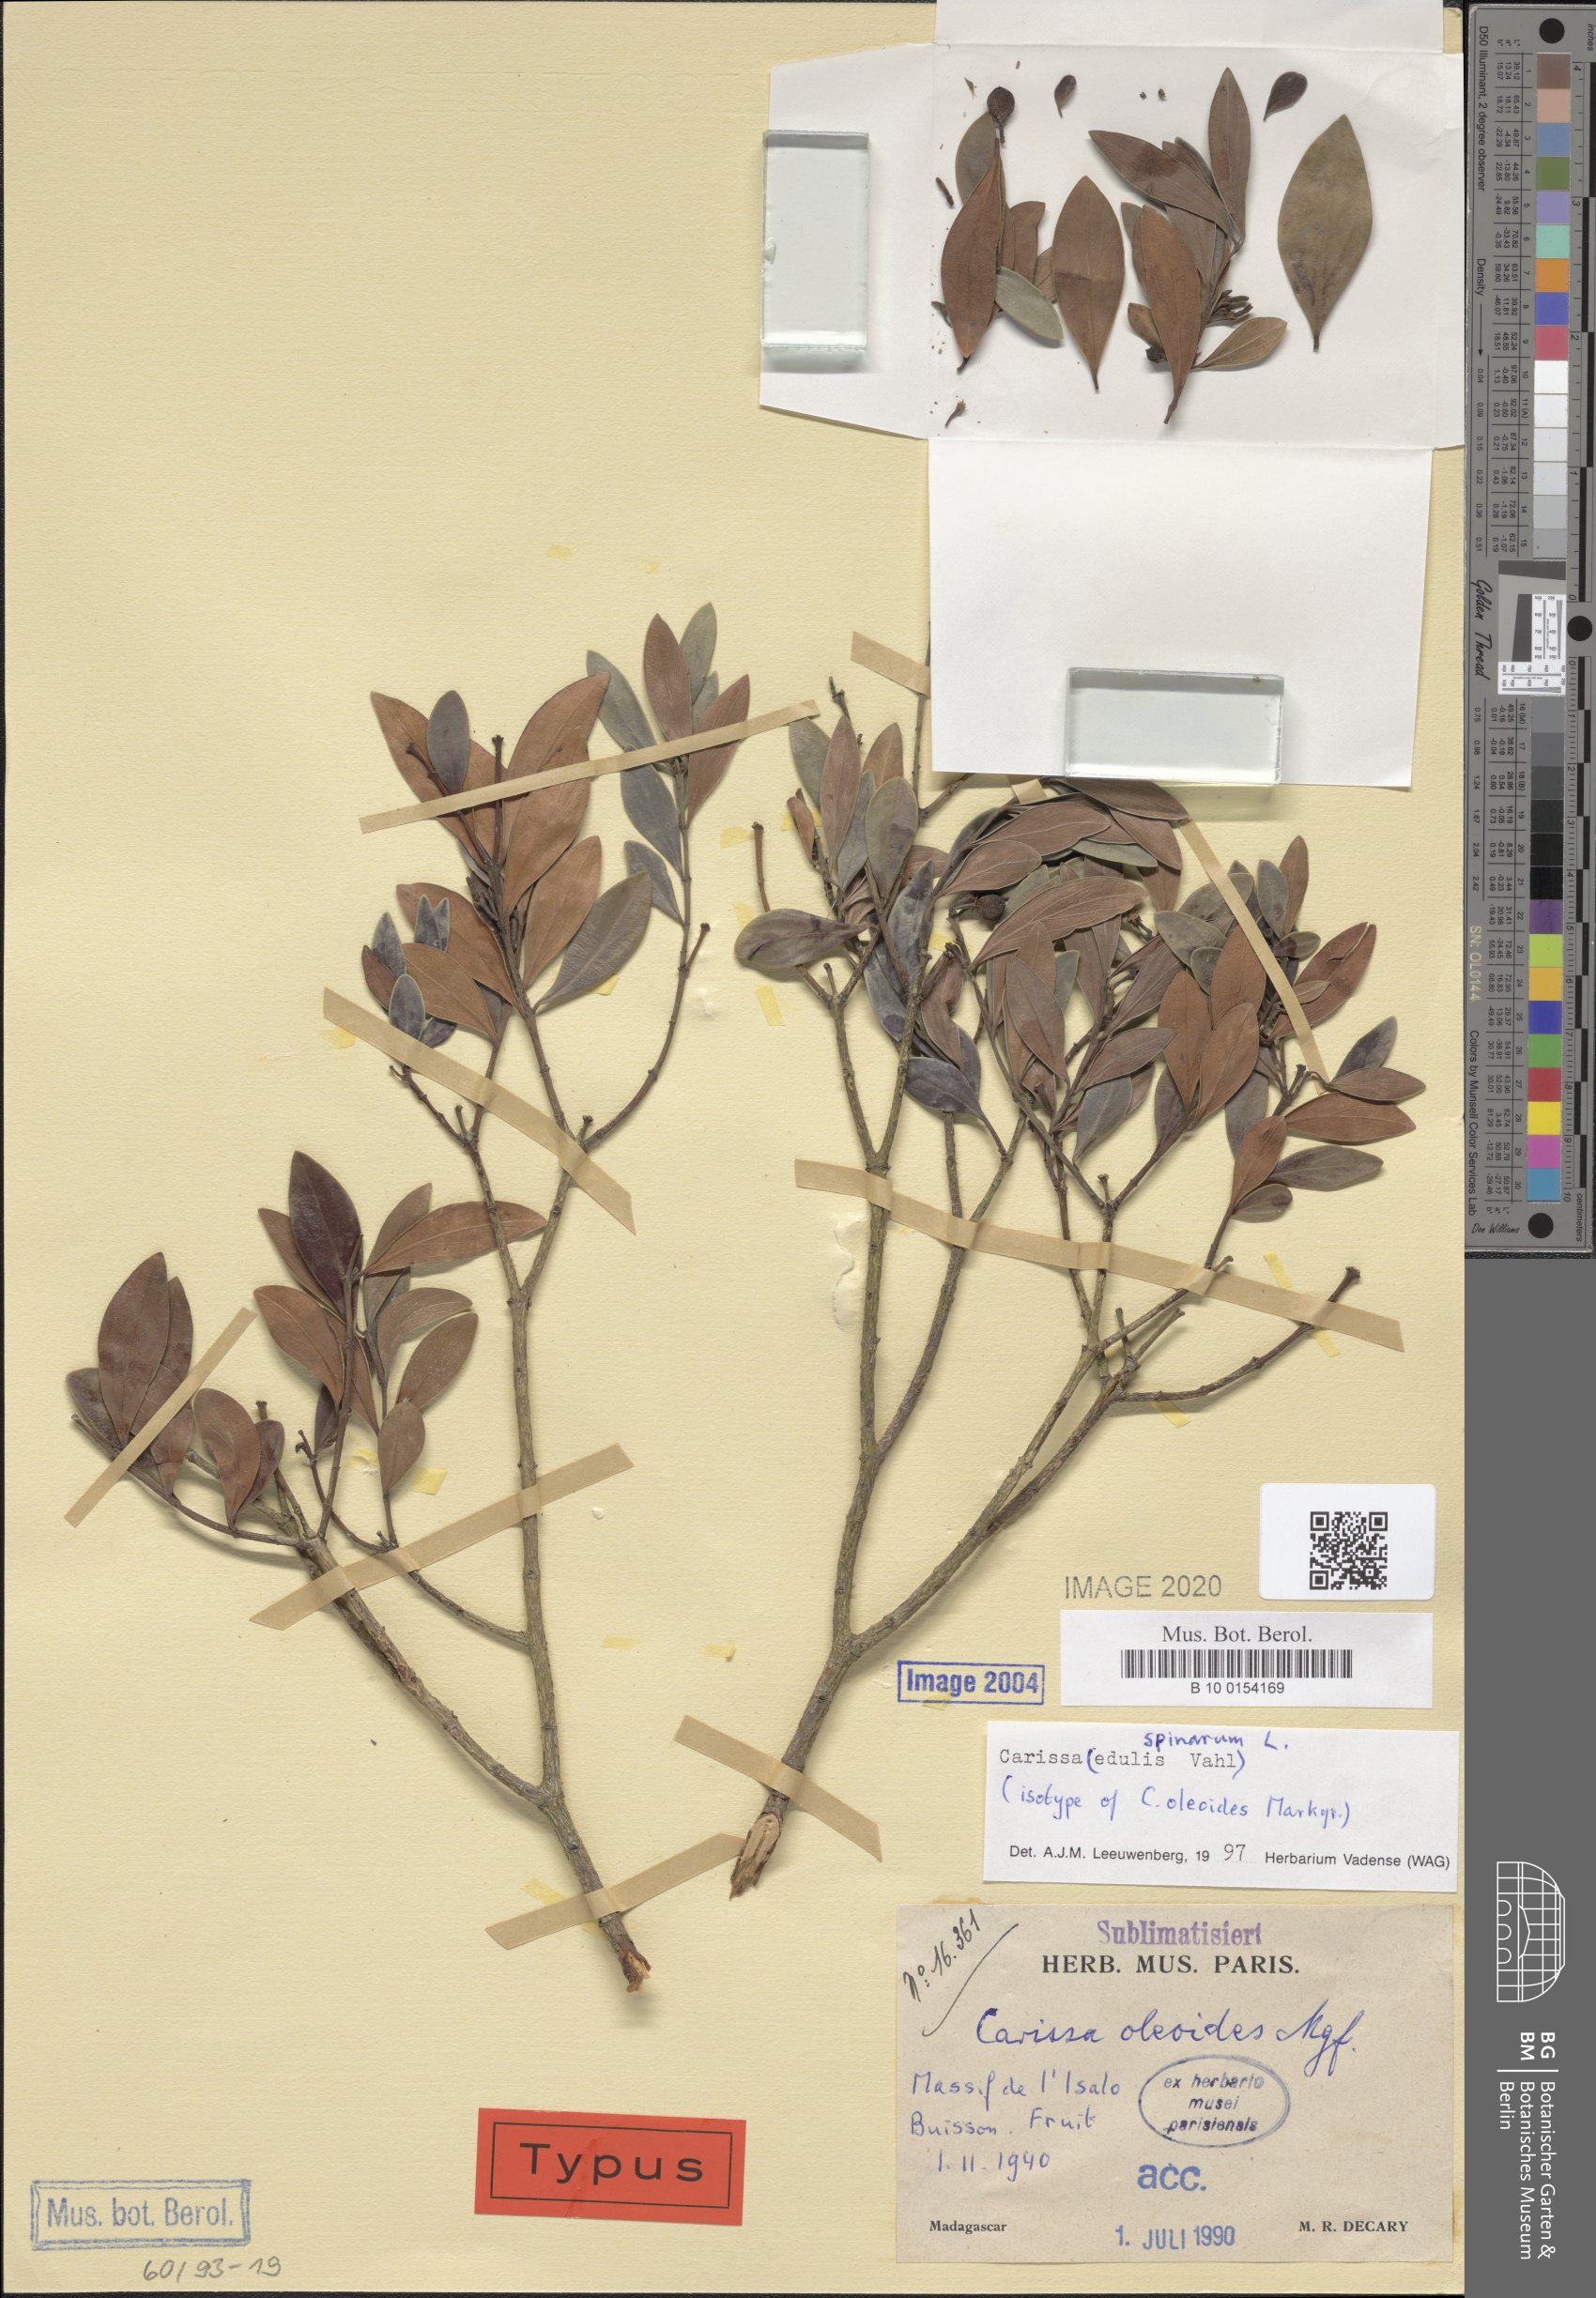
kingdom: Plantae
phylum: Tracheophyta
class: Magnoliopsida
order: Gentianales
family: Apocynaceae
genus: Carissa
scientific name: Carissa spinarum
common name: Egyptian carissa
